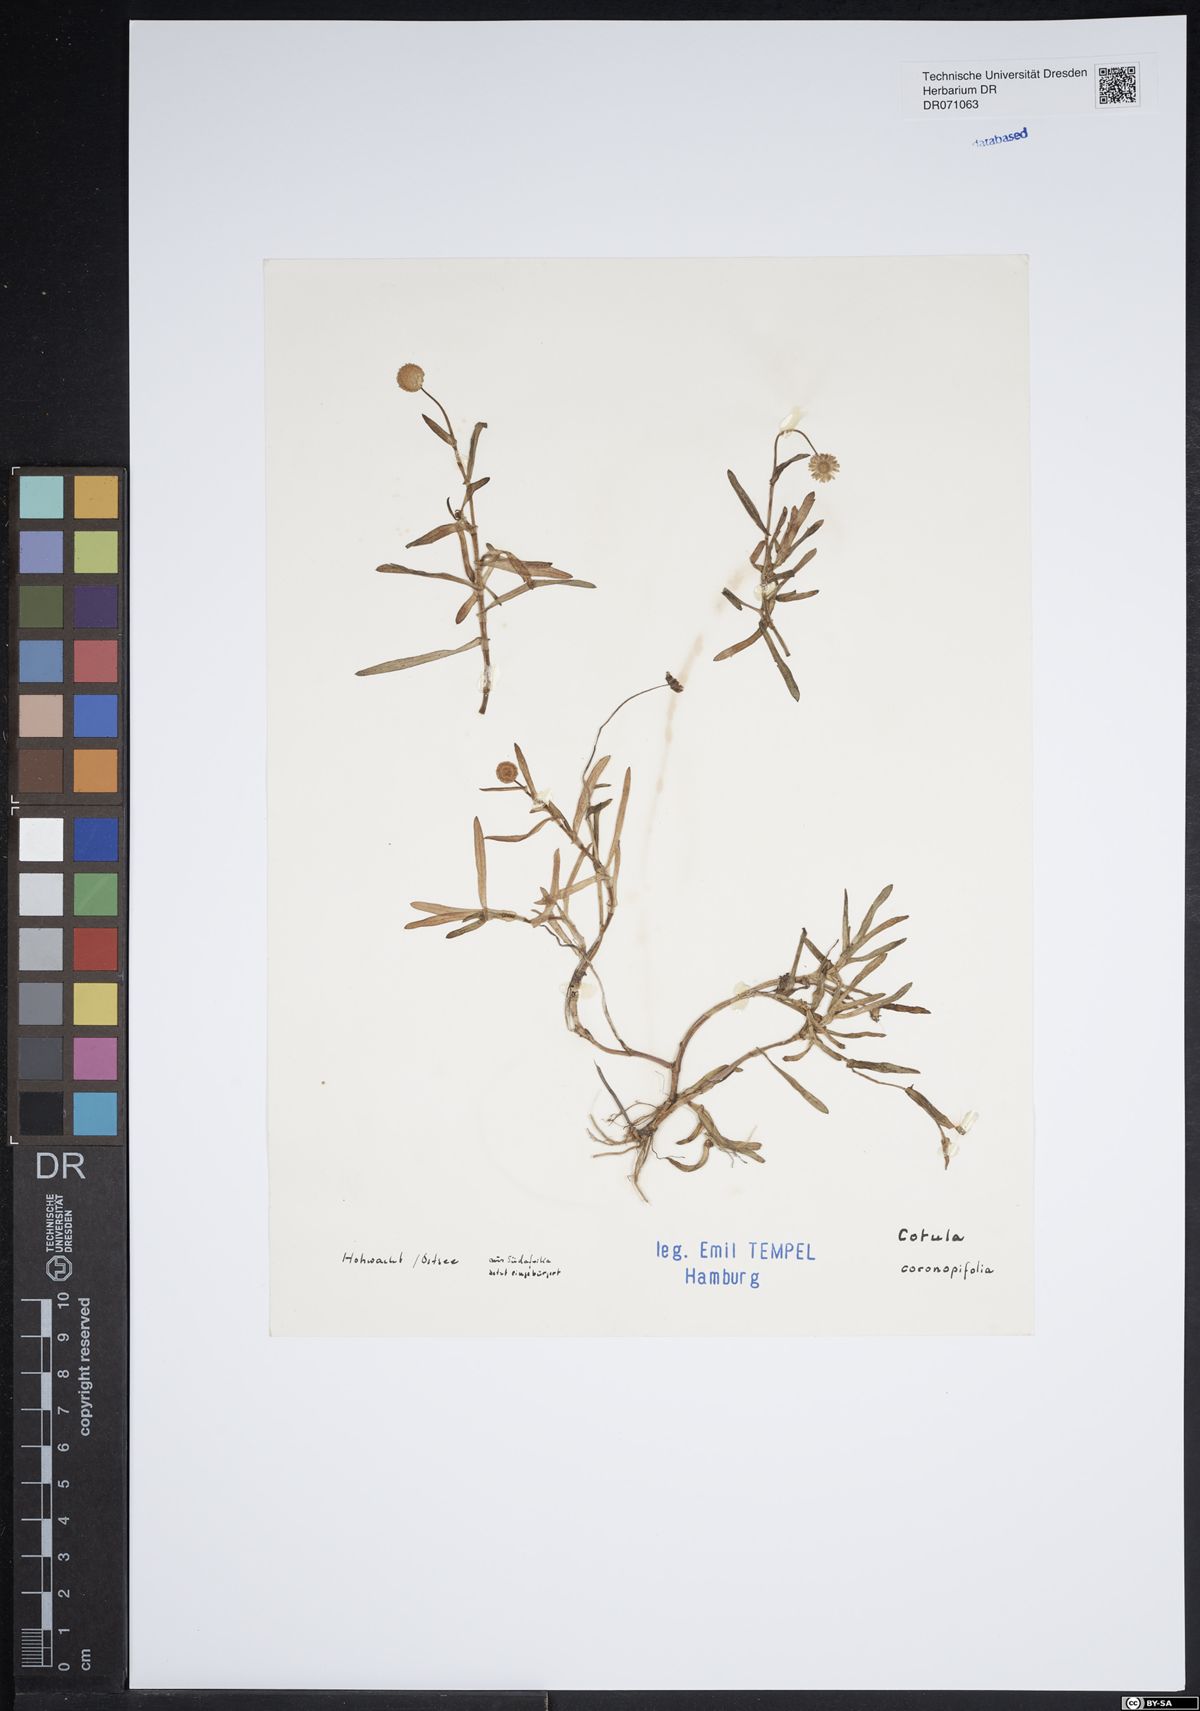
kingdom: Plantae
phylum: Tracheophyta
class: Magnoliopsida
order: Asterales
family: Asteraceae
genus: Cotula
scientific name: Cotula coronopifolia
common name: Buttonweed
